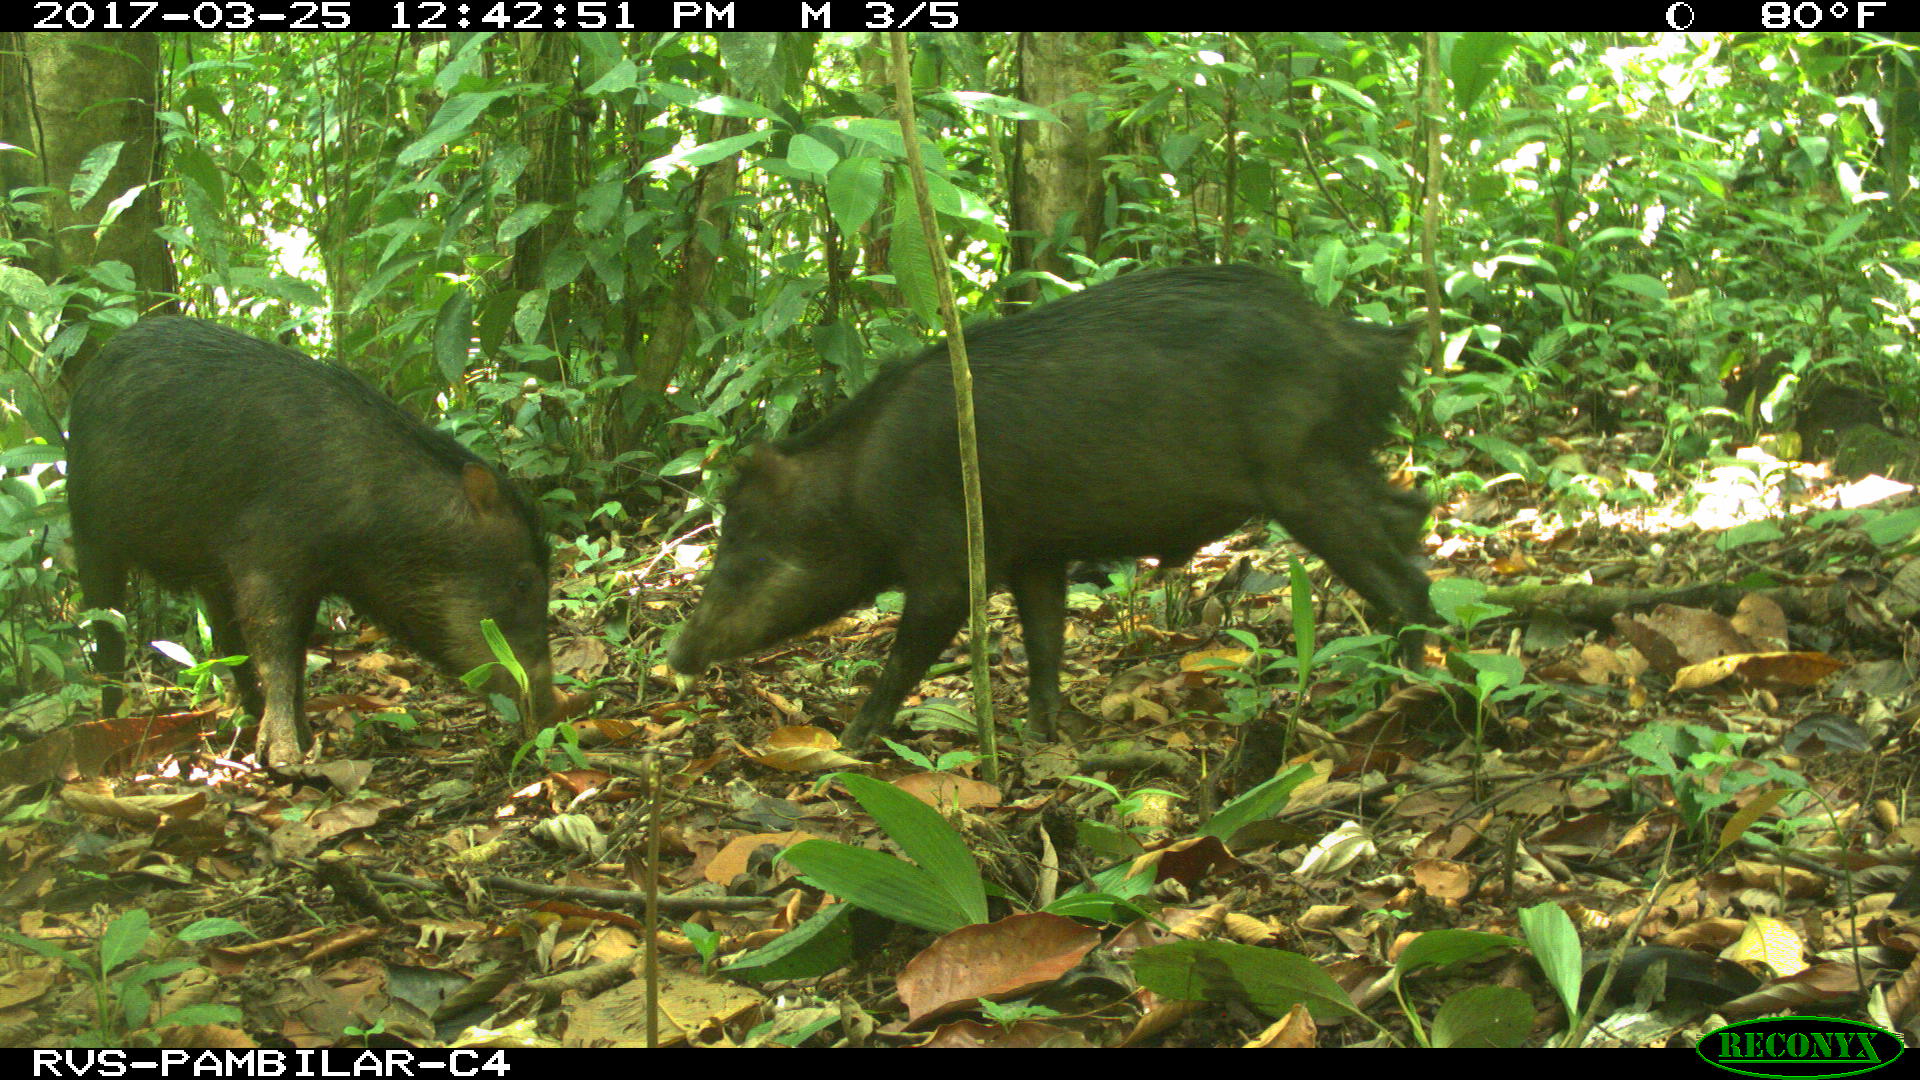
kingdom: Animalia
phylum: Chordata
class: Mammalia
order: Artiodactyla
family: Tayassuidae
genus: Tayassu
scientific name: Tayassu pecari
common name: White-lipped peccary
